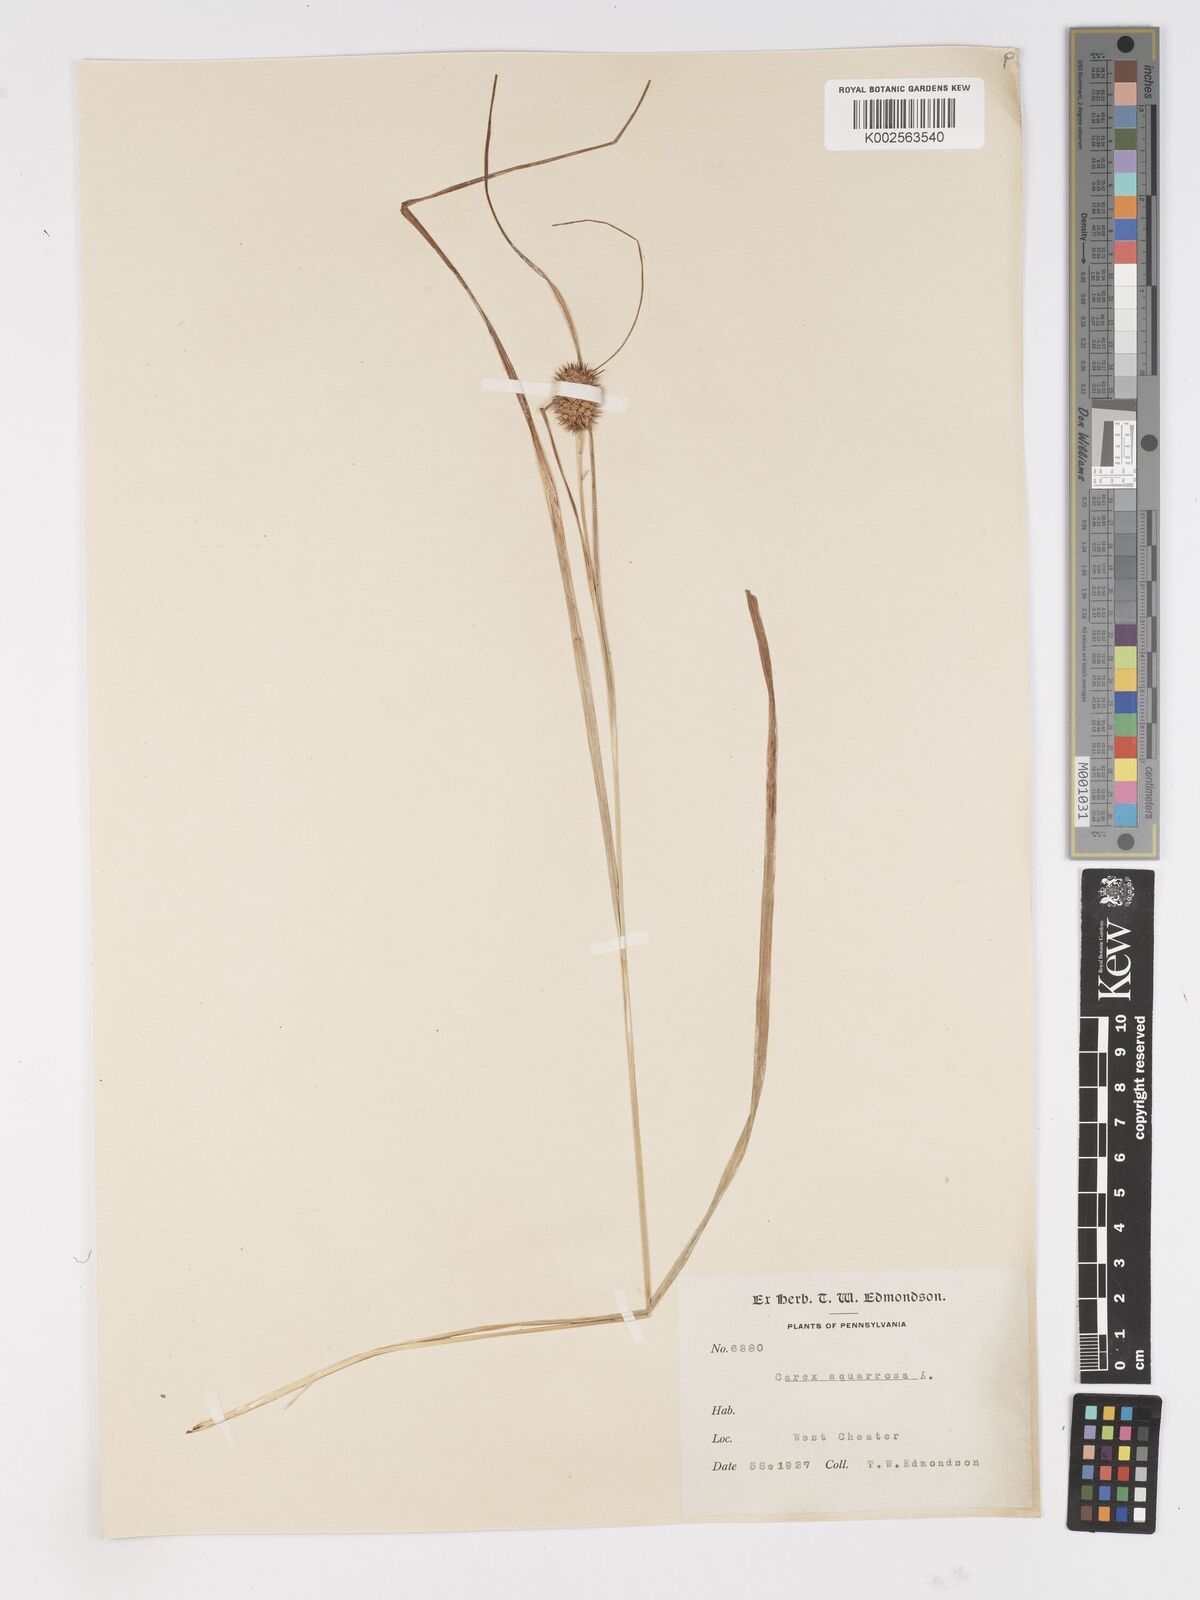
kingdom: Plantae
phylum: Tracheophyta
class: Liliopsida
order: Poales
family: Cyperaceae
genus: Carex
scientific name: Carex squarrosa
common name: Narrow-leaved cattail sedge
